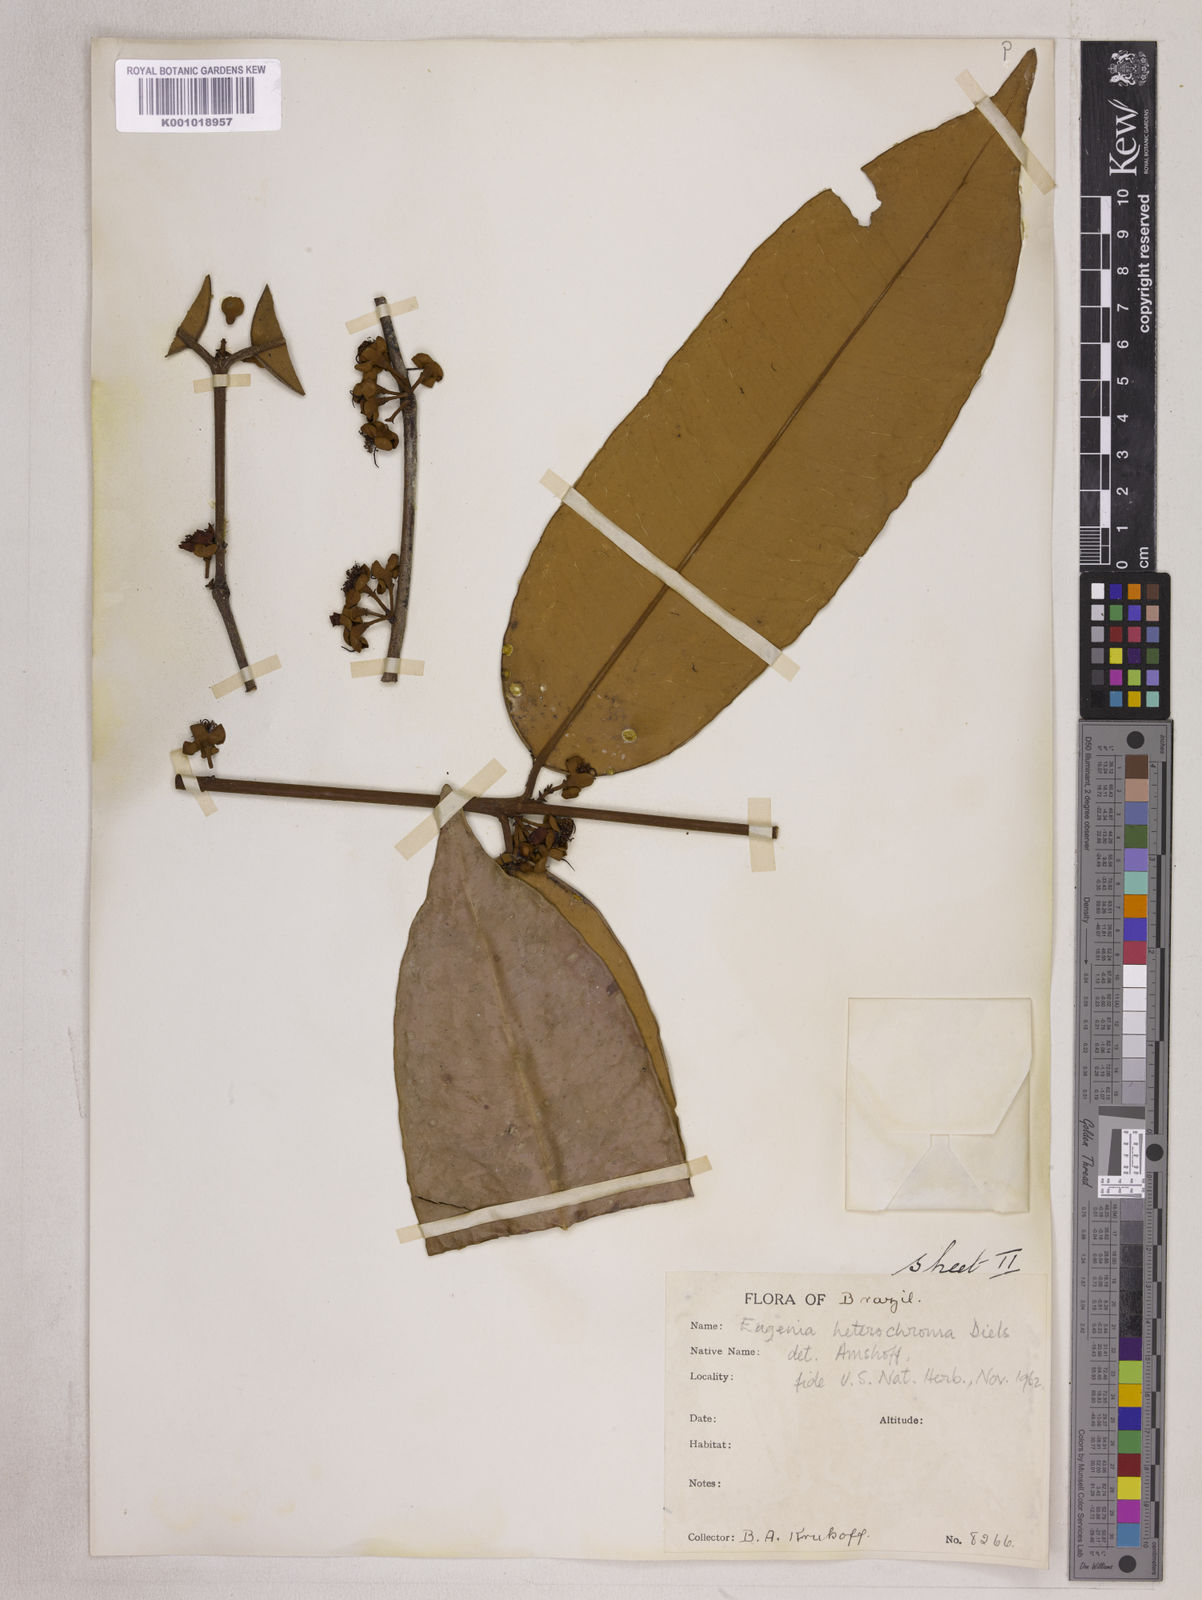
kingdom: Plantae
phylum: Tracheophyta
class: Magnoliopsida
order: Myrtales
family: Myrtaceae
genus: Eugenia
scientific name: Eugenia heterochroma
